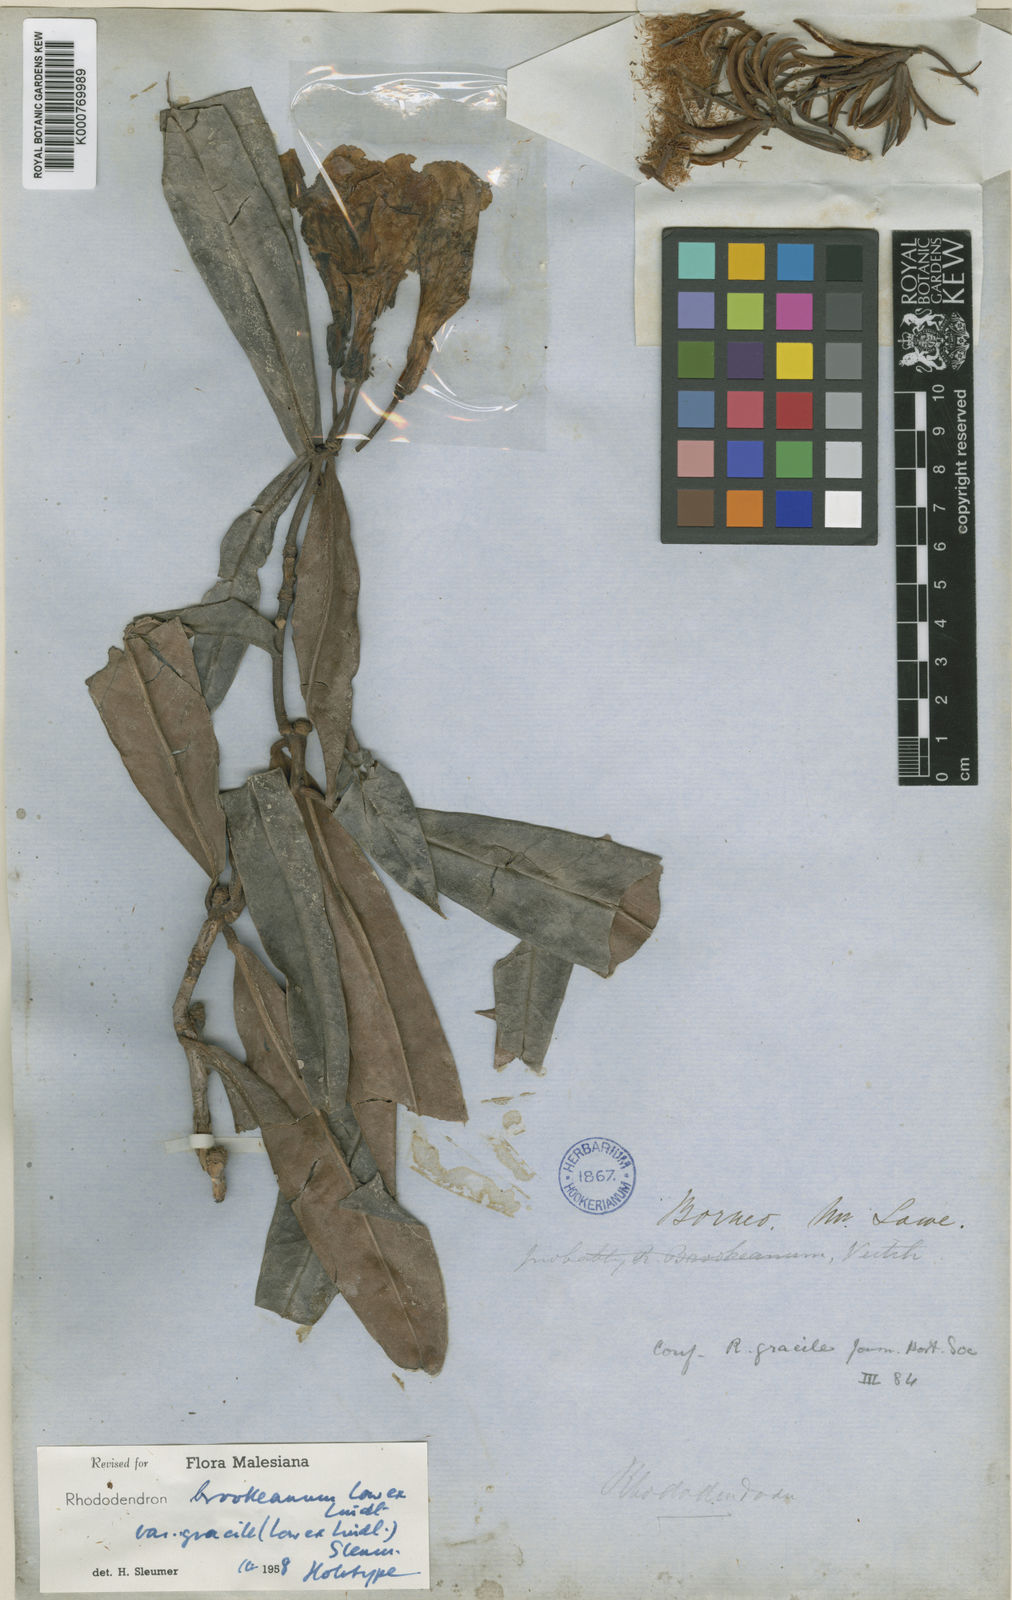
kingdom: Plantae
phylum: Tracheophyta
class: Magnoliopsida
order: Ericales
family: Ericaceae
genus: Rhododendron
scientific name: Rhododendron javanicum
